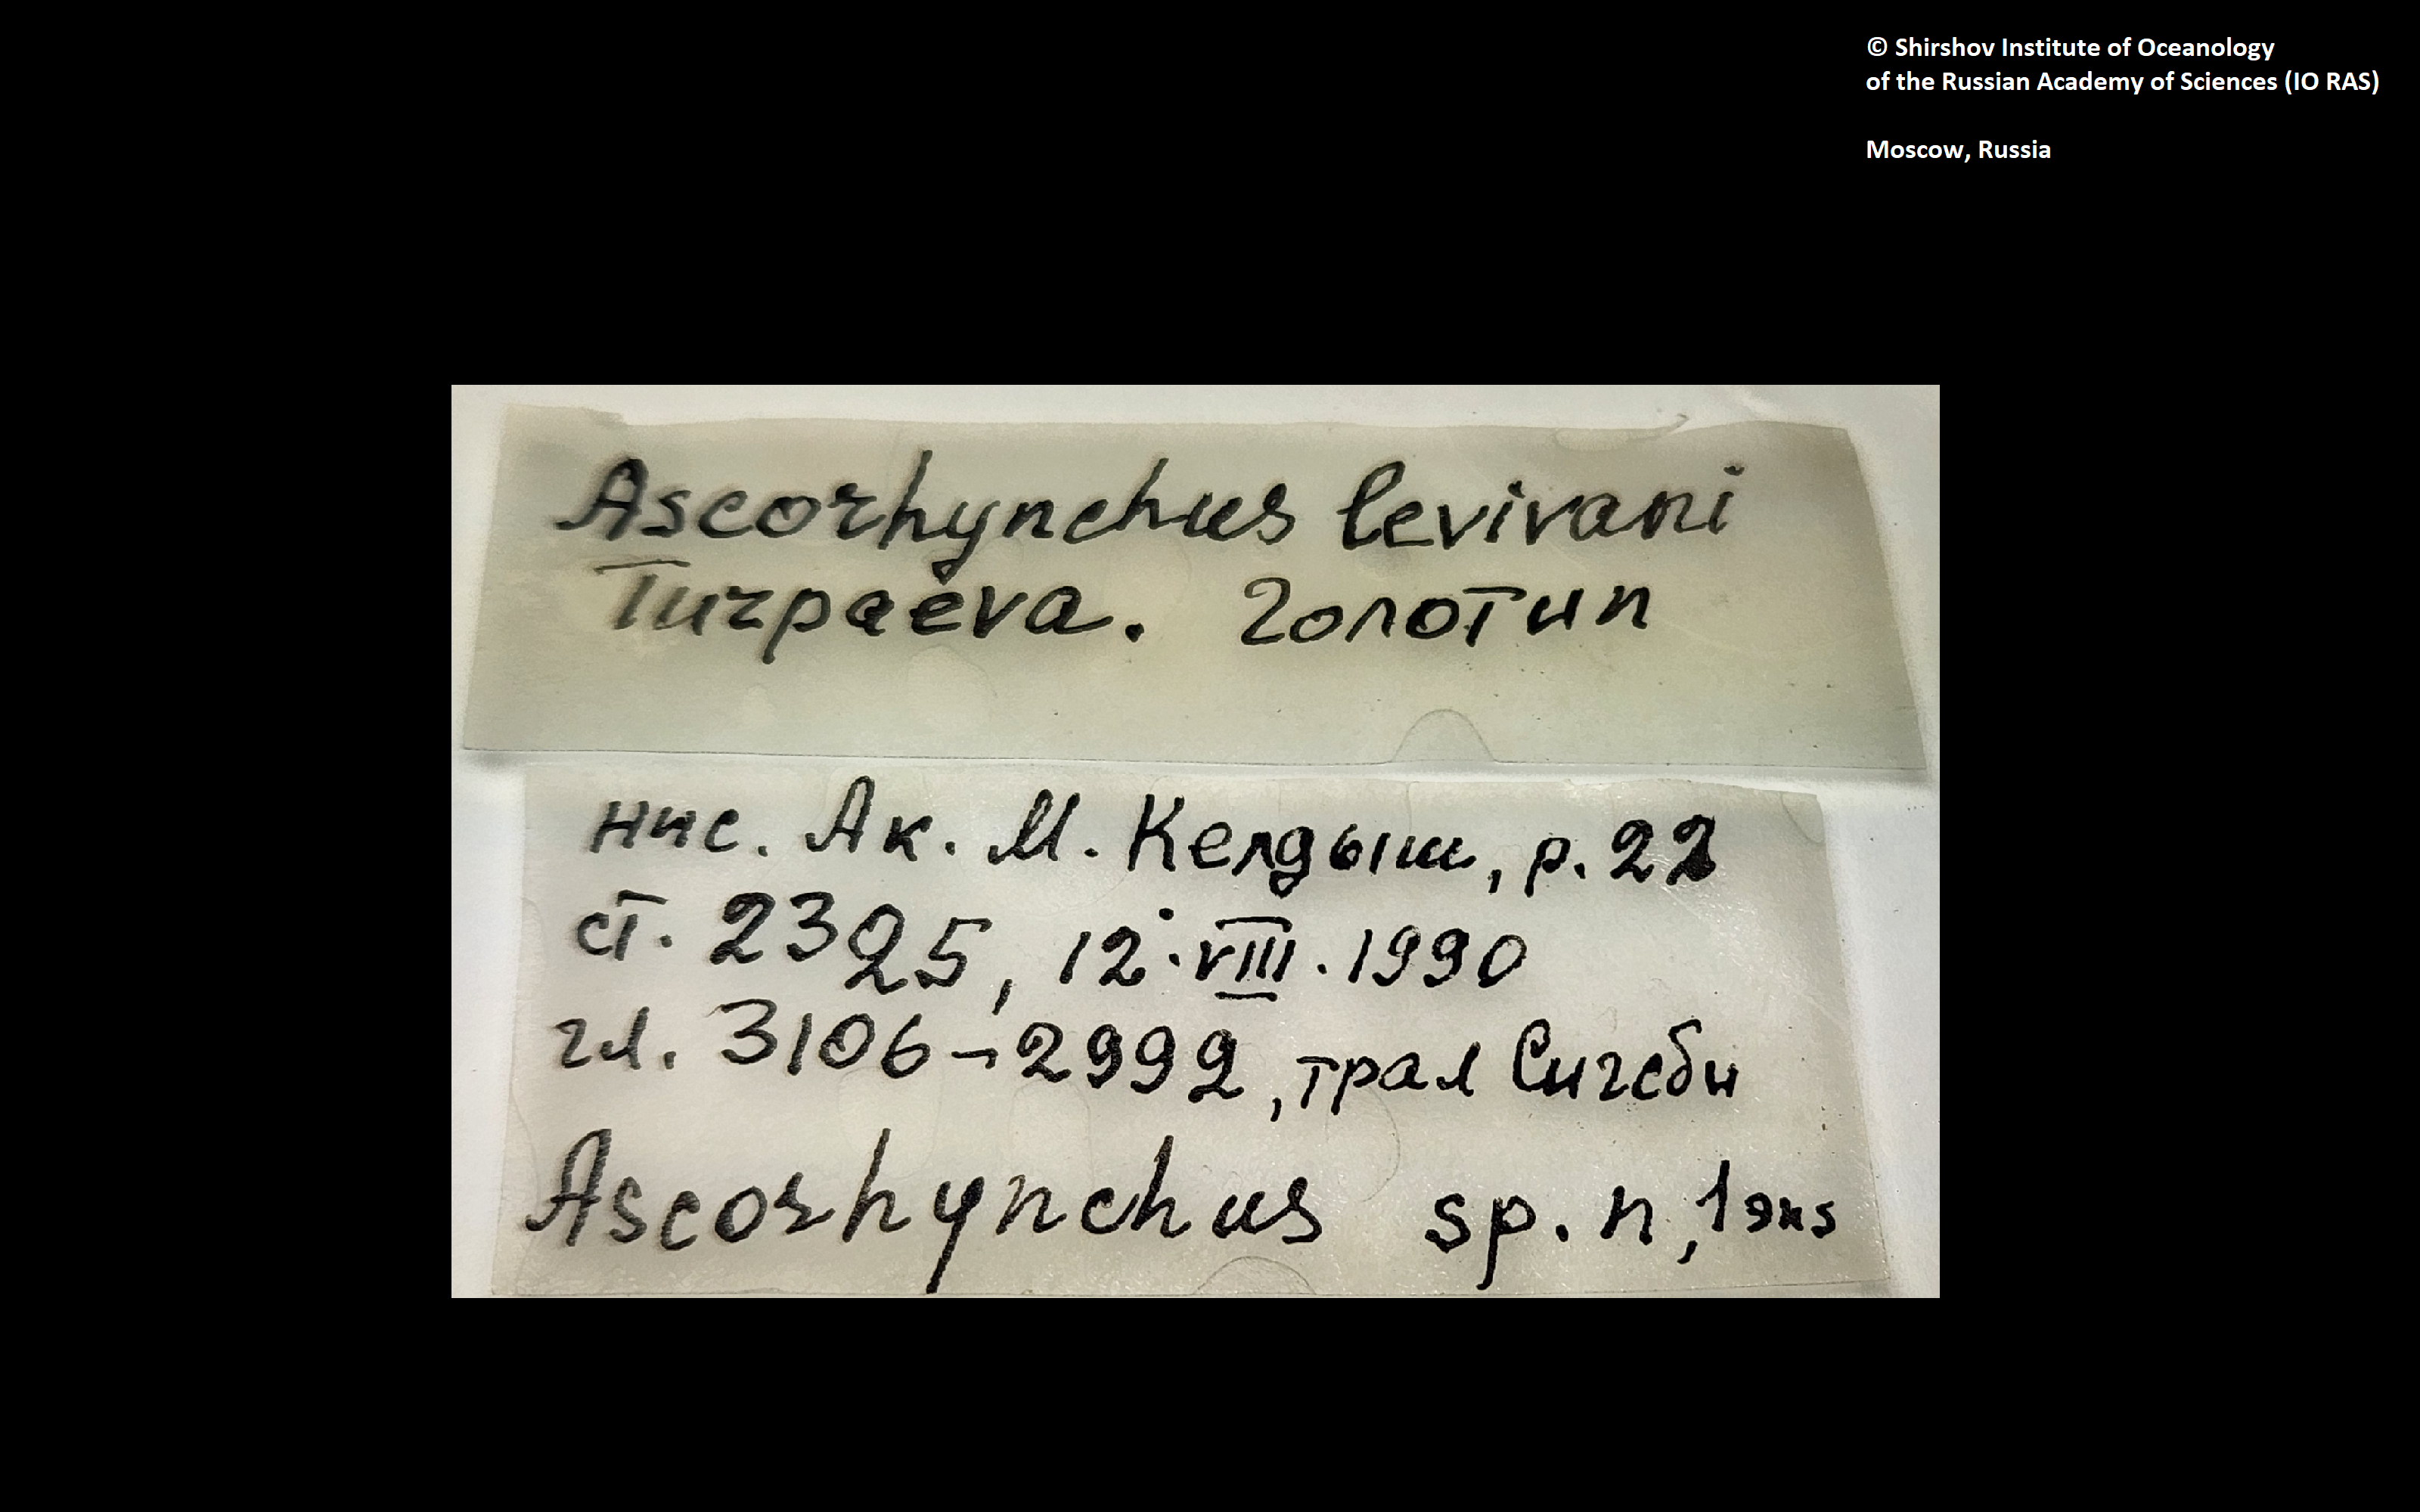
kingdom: Animalia
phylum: Arthropoda
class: Pycnogonida
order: Pantopoda
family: Ascorhynchidae
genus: Ascorhynchus
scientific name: Ascorhynchus levivani
